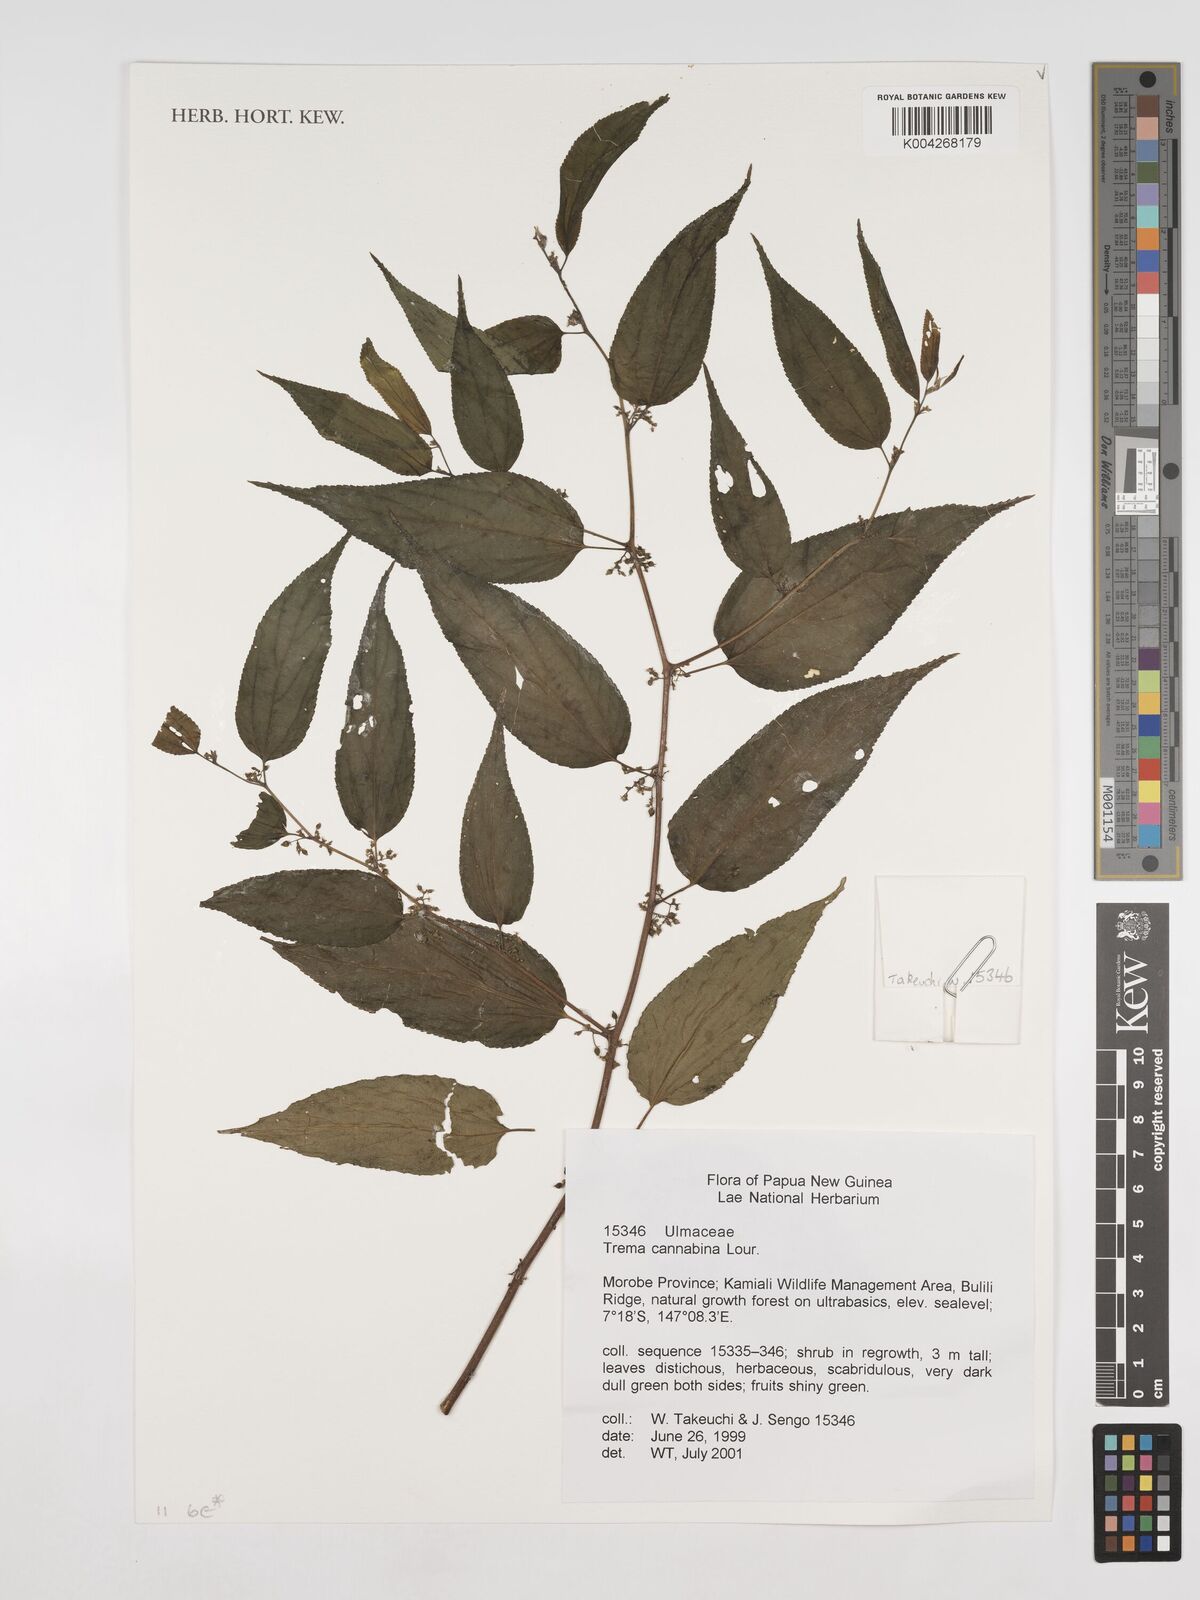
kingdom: Plantae
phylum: Tracheophyta
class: Magnoliopsida
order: Rosales
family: Cannabaceae
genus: Trema
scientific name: Trema
